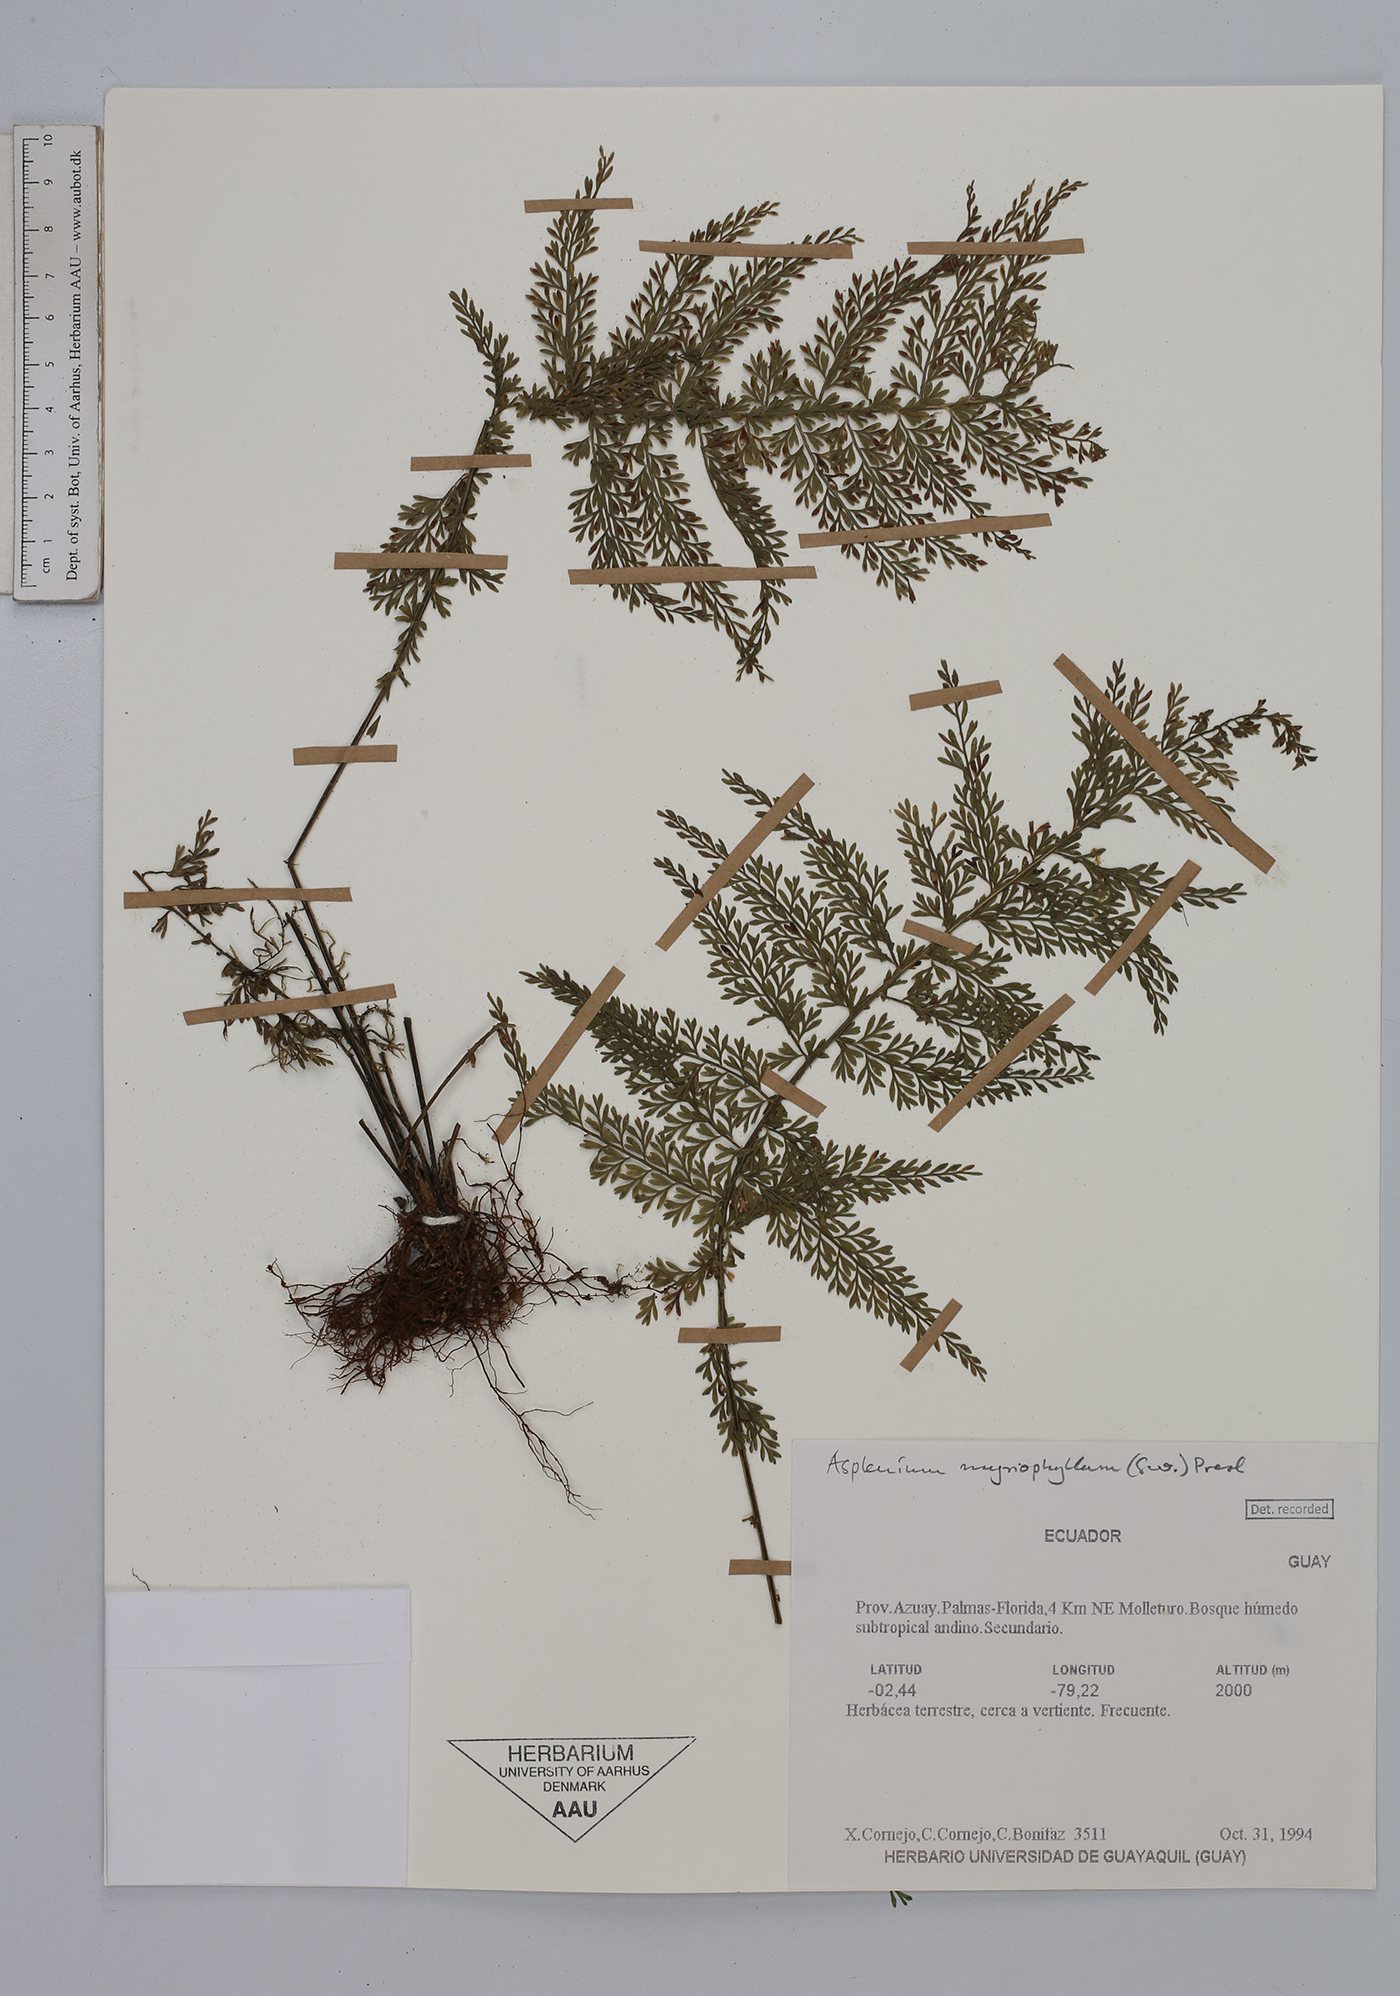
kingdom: Plantae
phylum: Tracheophyta
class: Polypodiopsida
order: Polypodiales
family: Aspleniaceae
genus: Asplenium
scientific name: Asplenium myriophyllum
